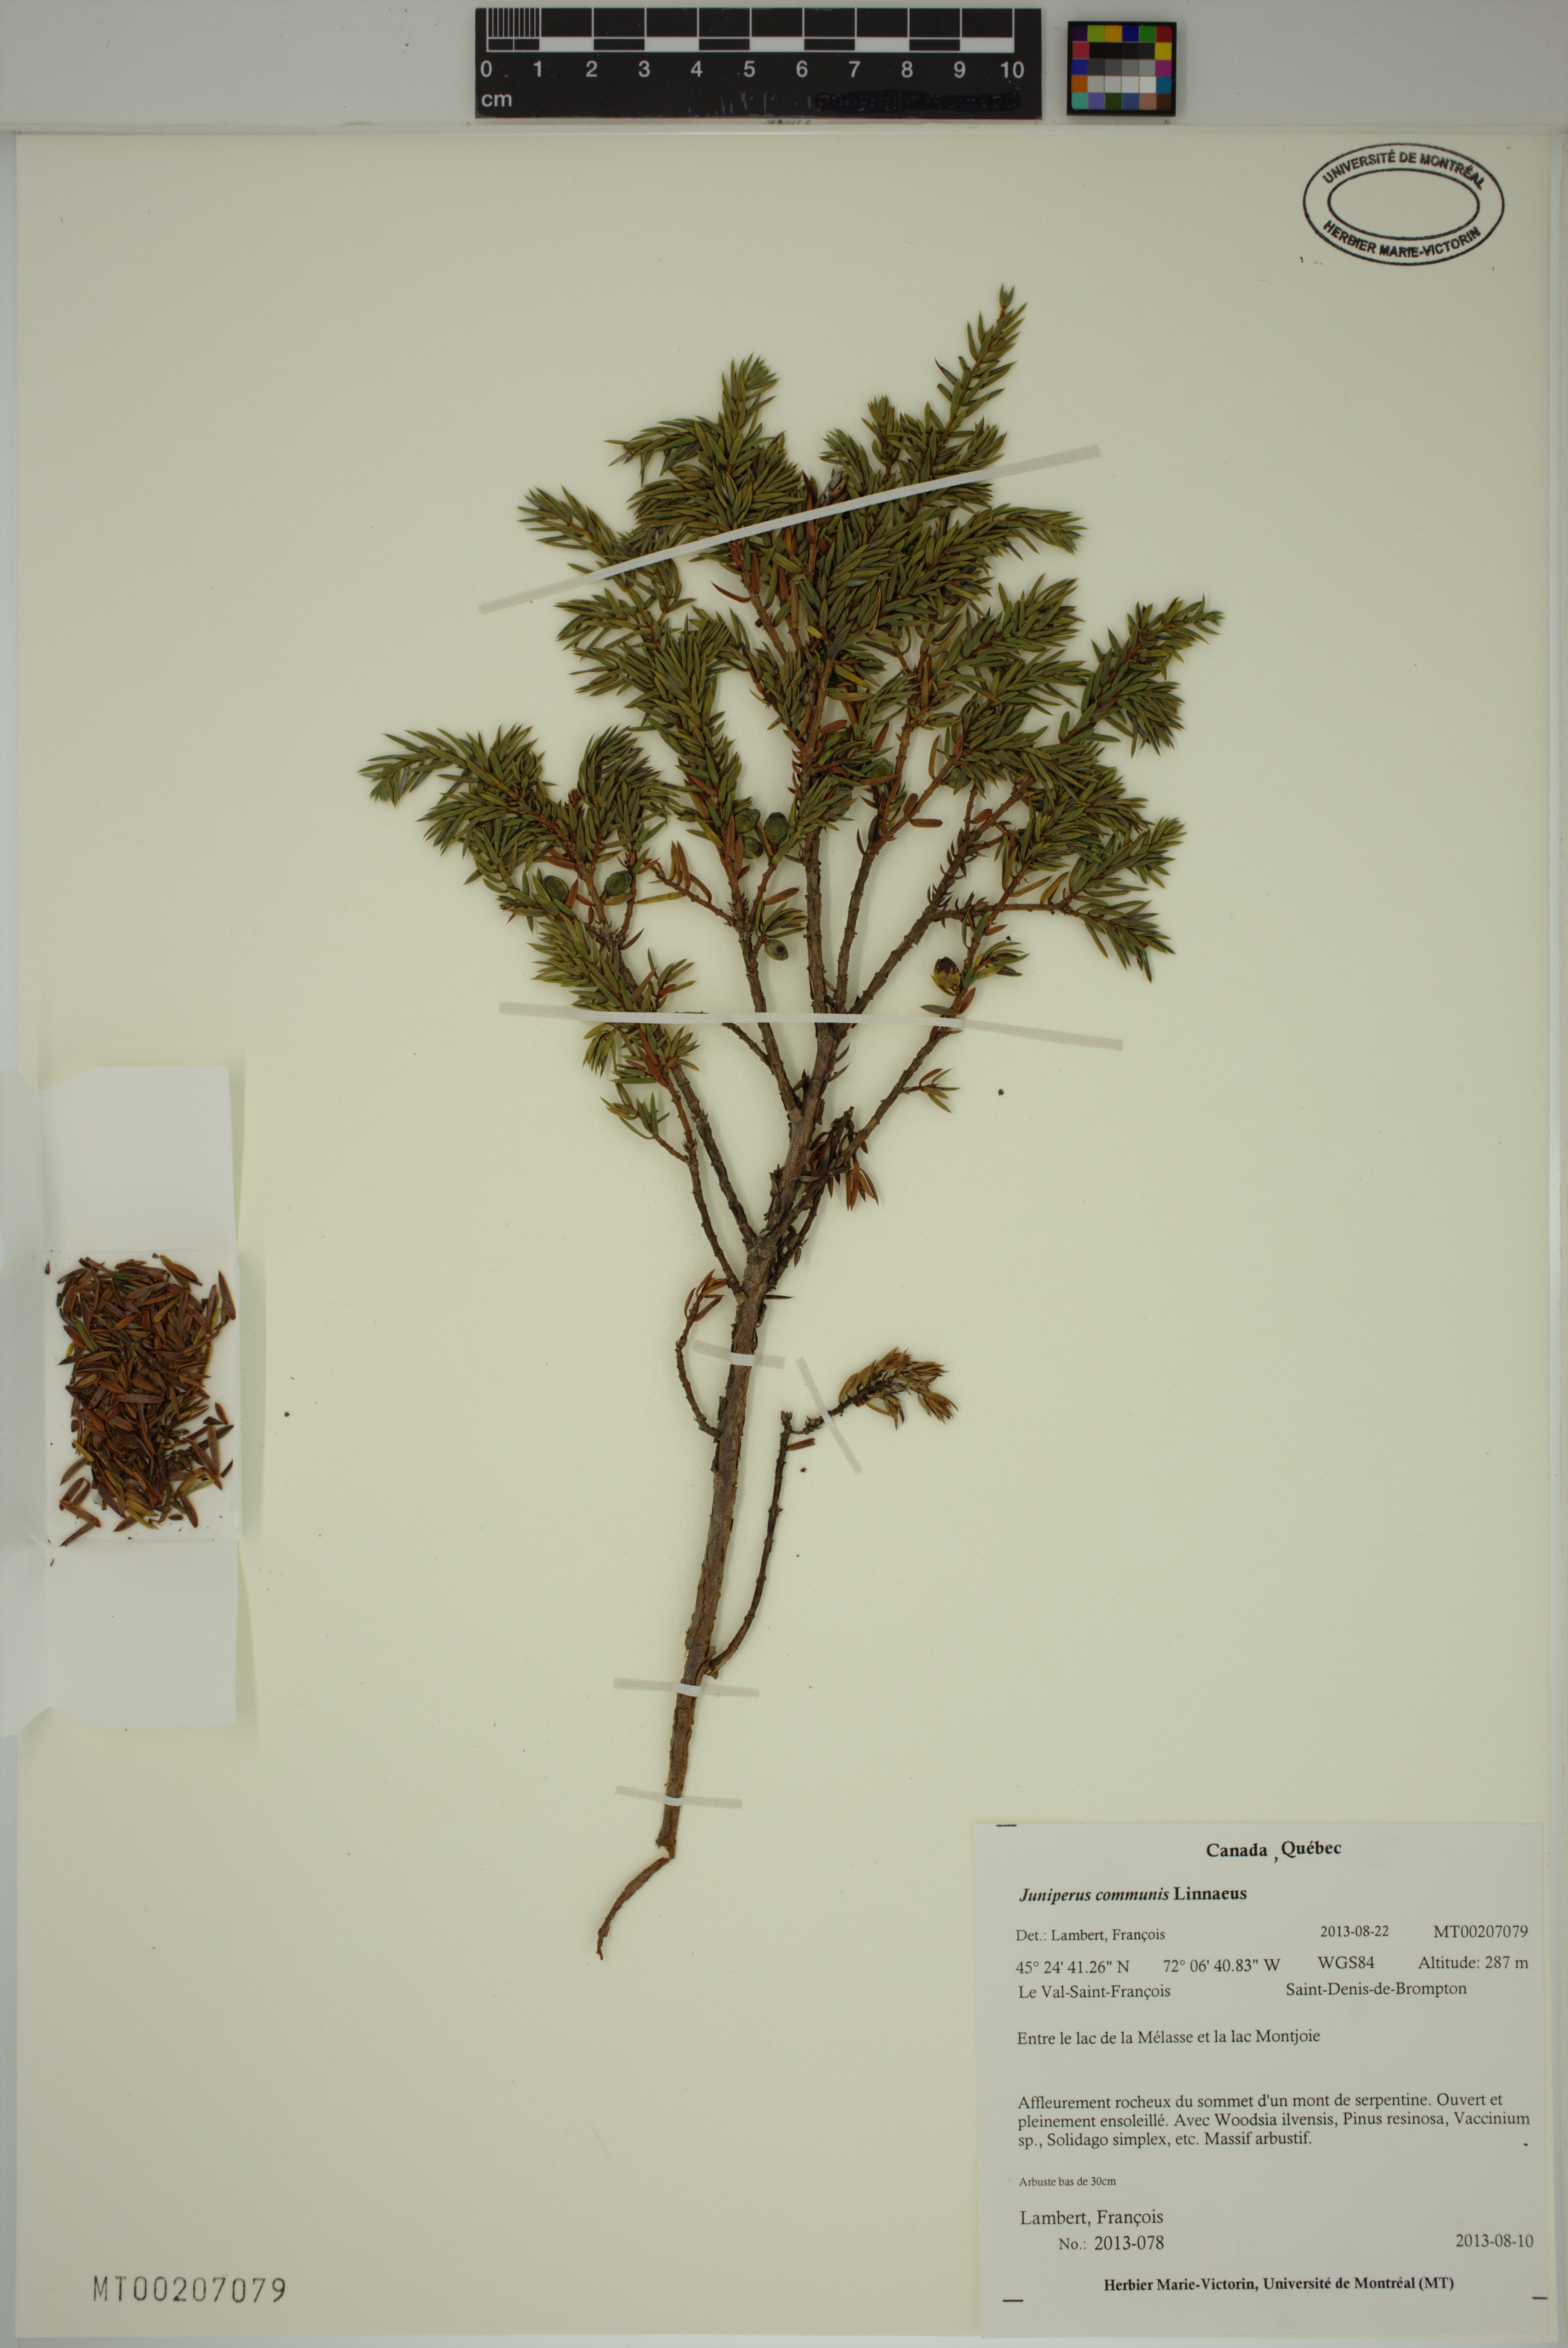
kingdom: Plantae
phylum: Tracheophyta
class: Pinopsida
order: Pinales
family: Cupressaceae
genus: Juniperus
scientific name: Juniperus communis
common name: Common juniper
